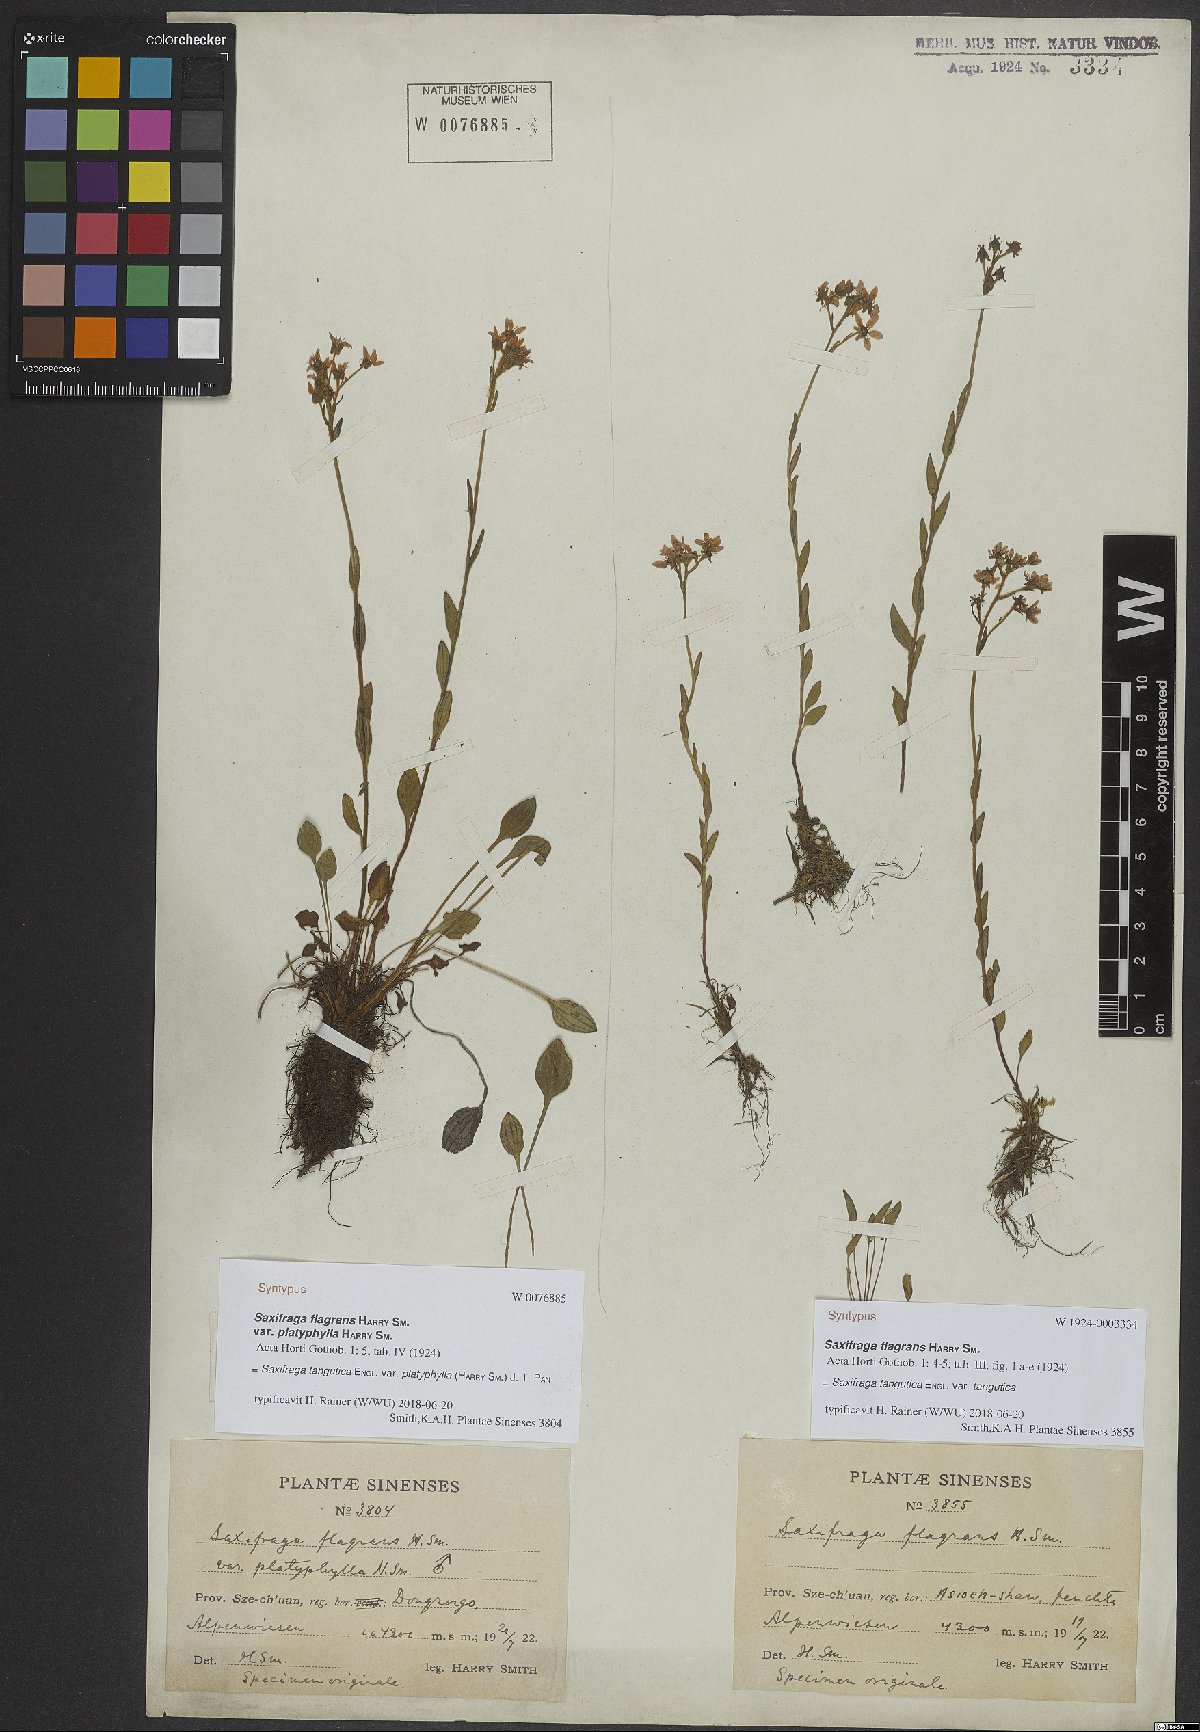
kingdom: Plantae
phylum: Tracheophyta
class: Magnoliopsida
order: Saxifragales
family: Saxifragaceae
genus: Saxifraga
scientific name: Saxifraga tangutica
